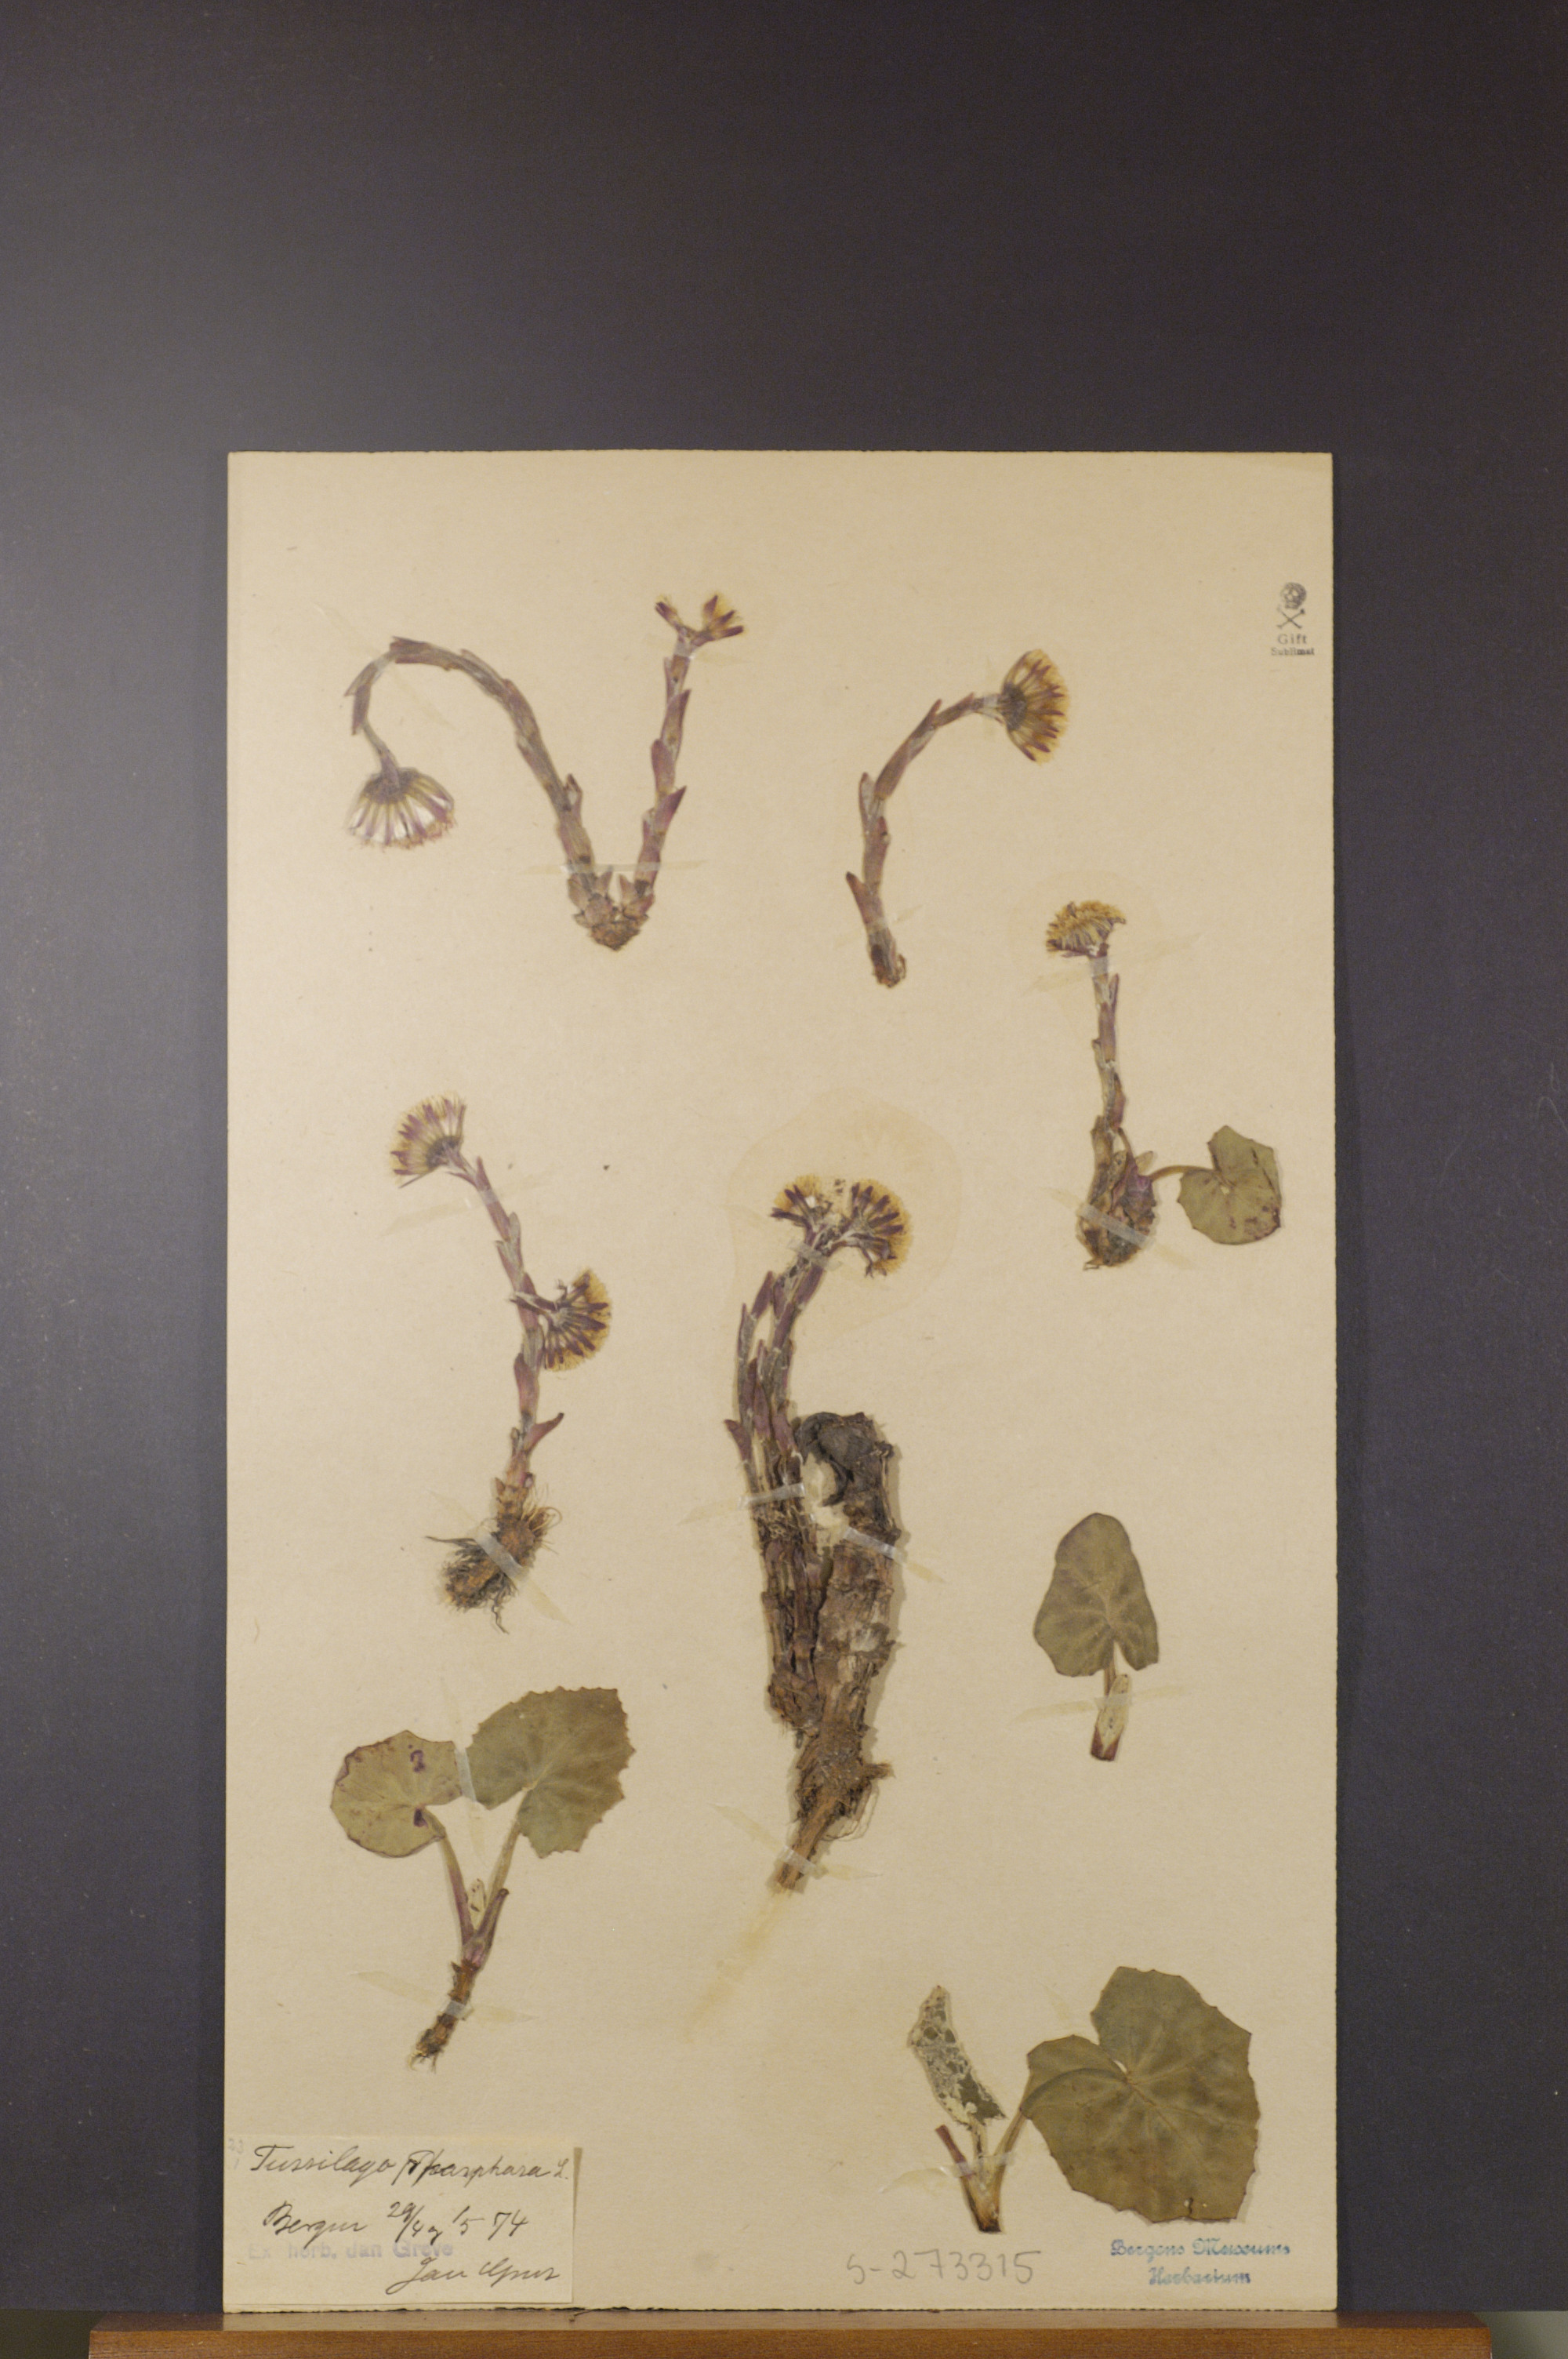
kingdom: Plantae
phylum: Tracheophyta
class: Magnoliopsida
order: Asterales
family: Asteraceae
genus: Tussilago
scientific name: Tussilago
